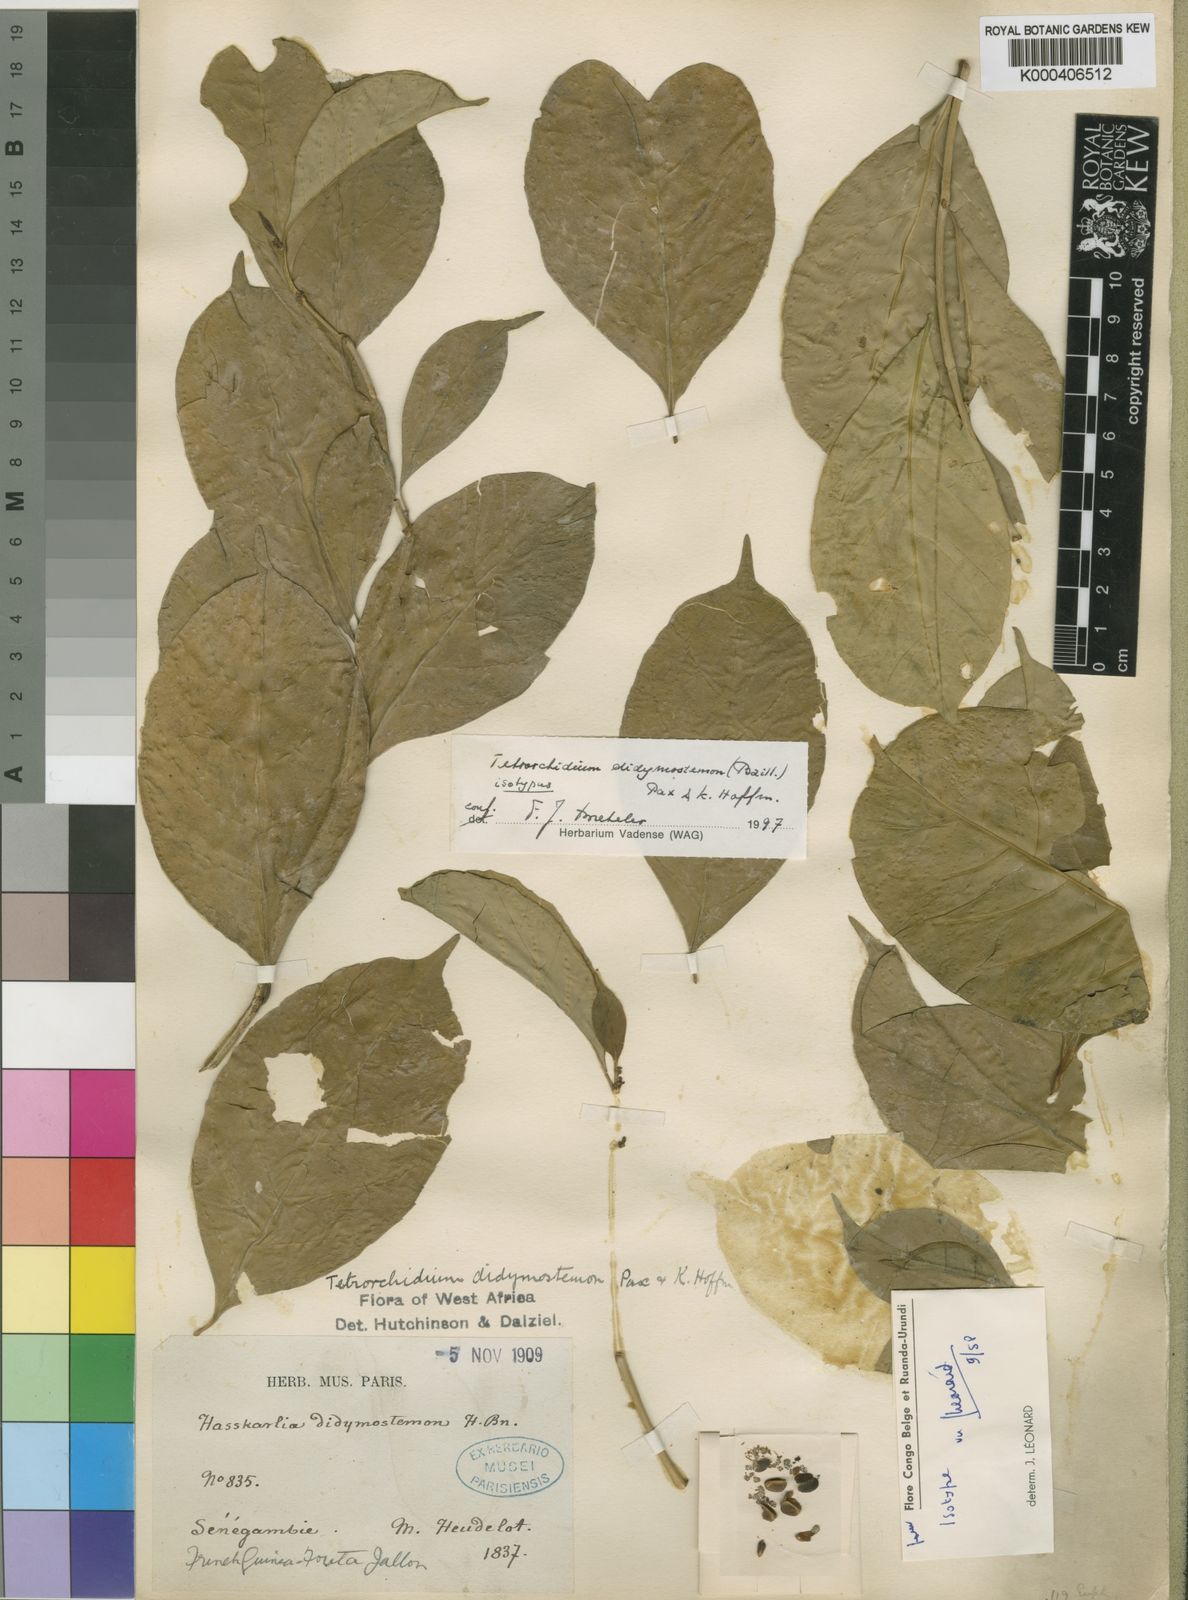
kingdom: Plantae
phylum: Tracheophyta
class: Magnoliopsida
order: Malpighiales
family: Euphorbiaceae
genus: Tetrorchidium
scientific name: Tetrorchidium didymostemon
